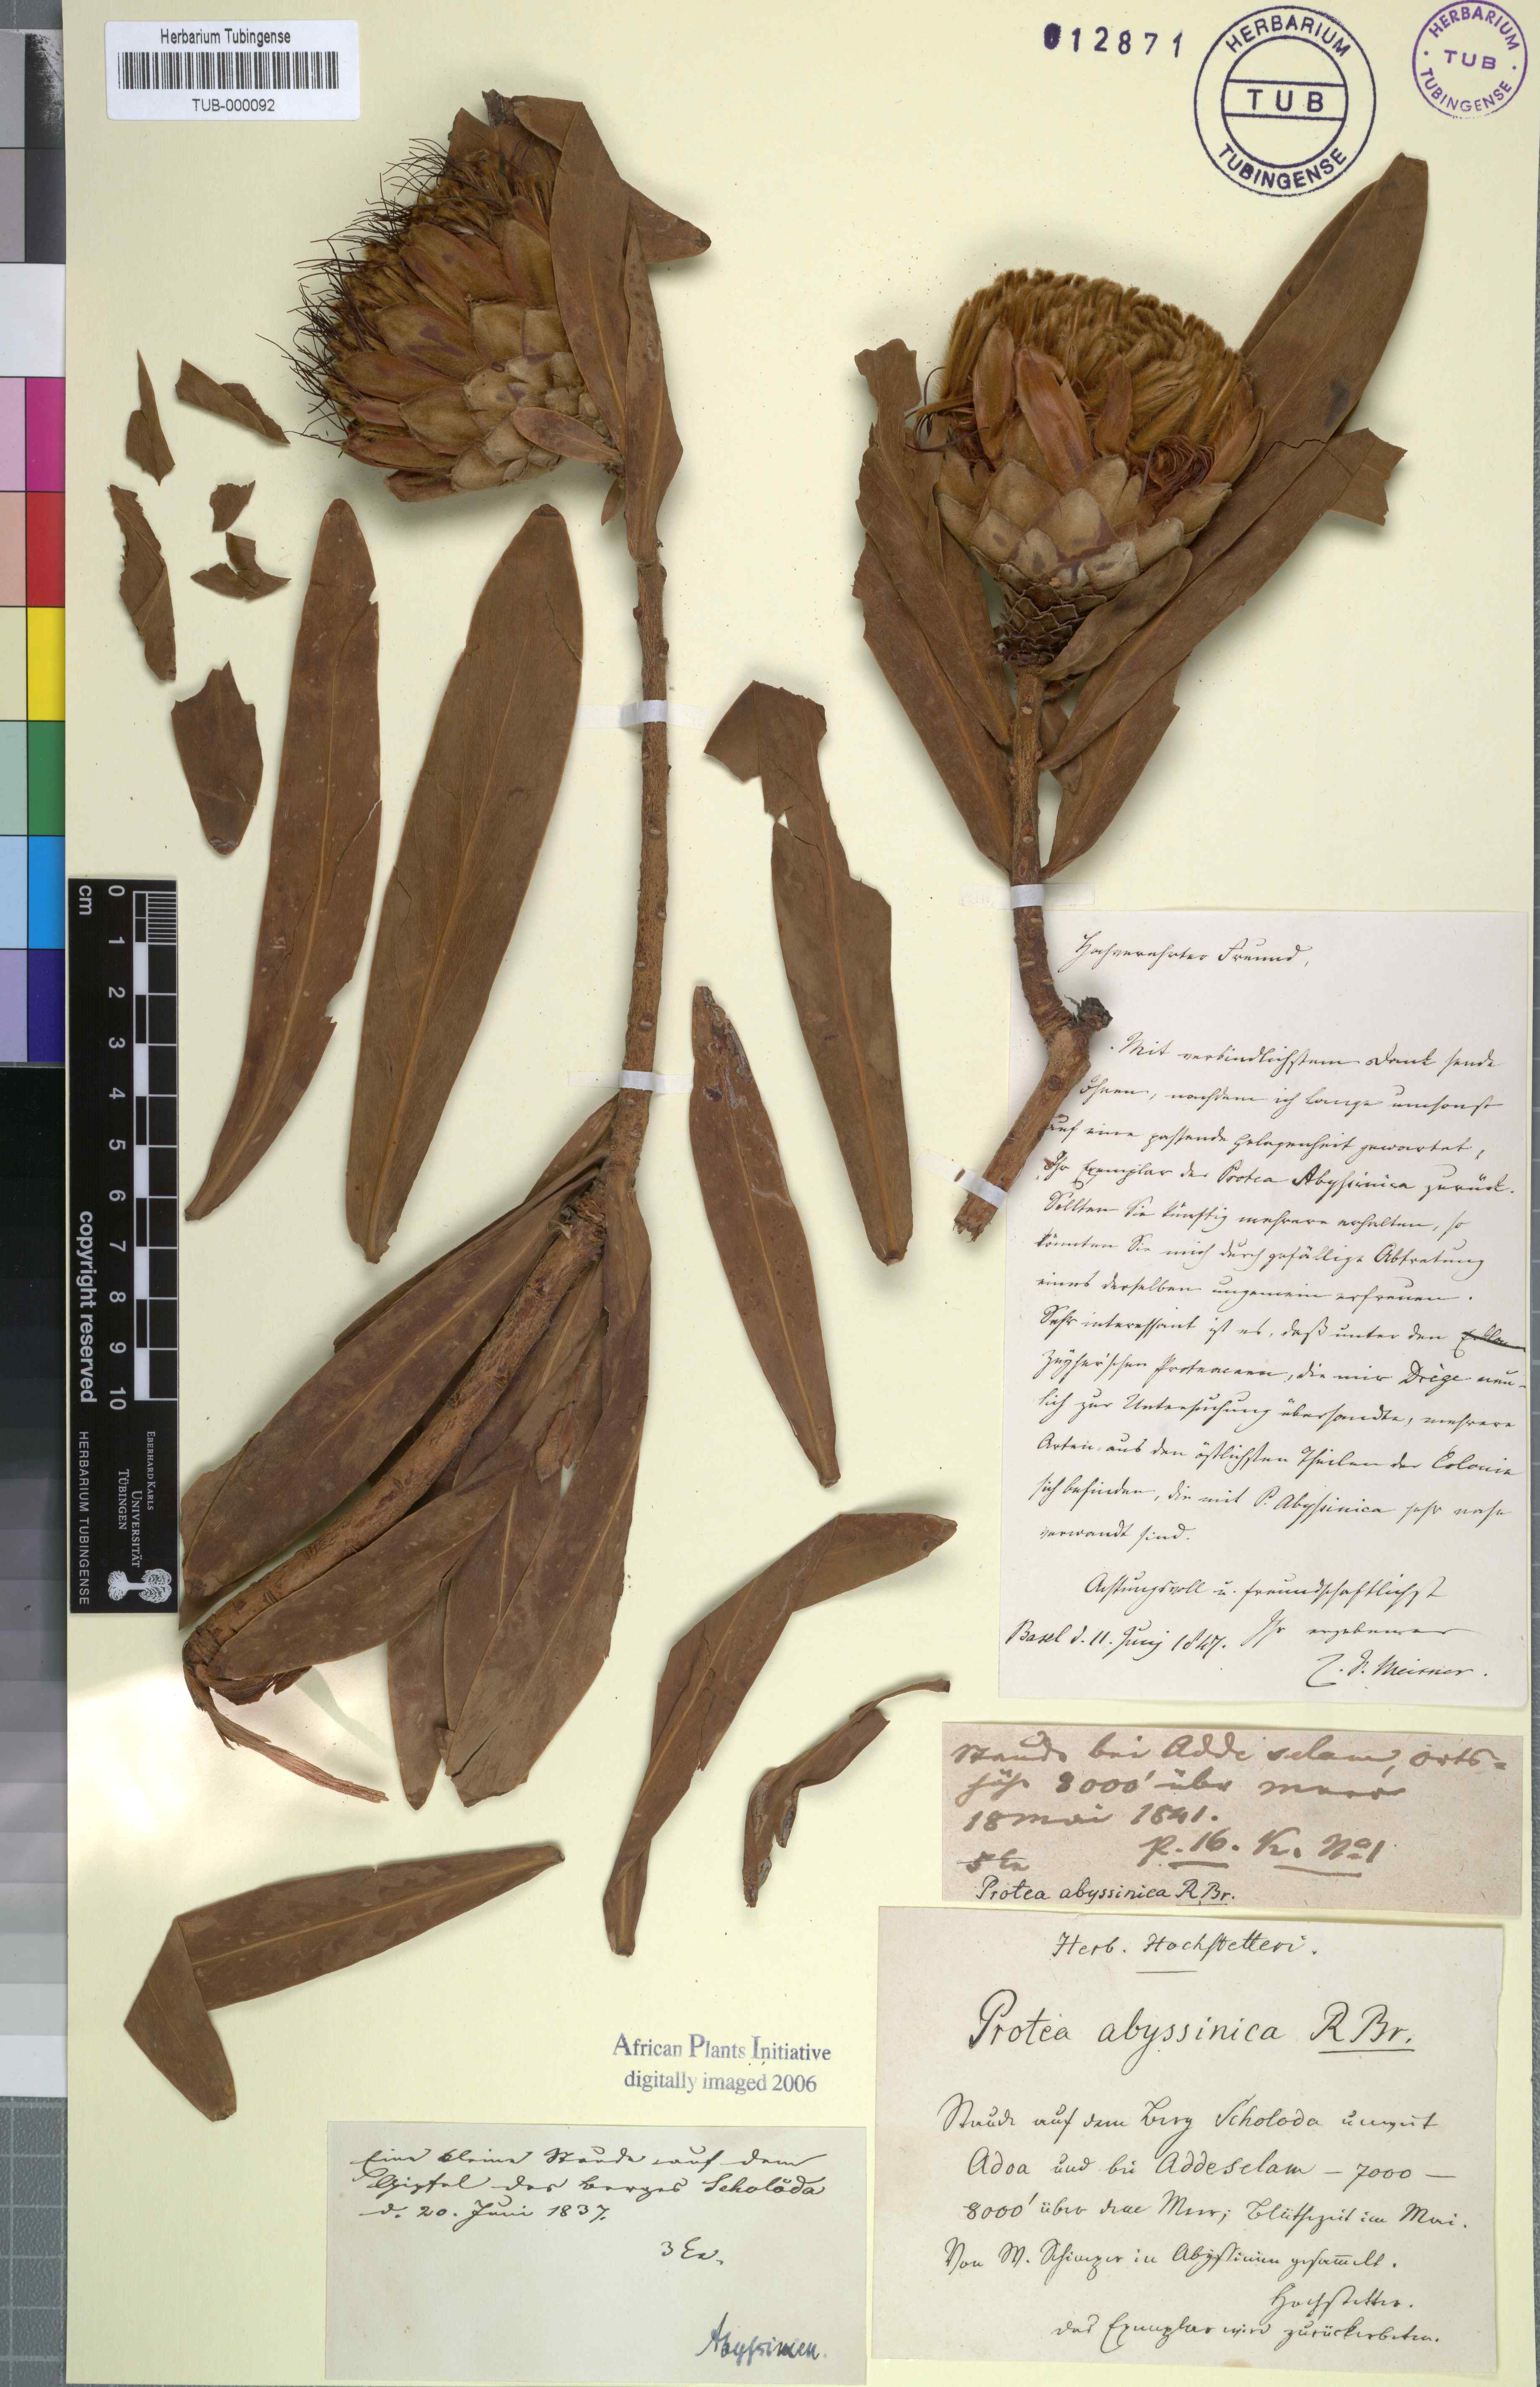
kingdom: Plantae
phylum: Tracheophyta
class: Magnoliopsida
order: Proteales
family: Proteaceae
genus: Protea
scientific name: Protea gaguedi
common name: African protea
